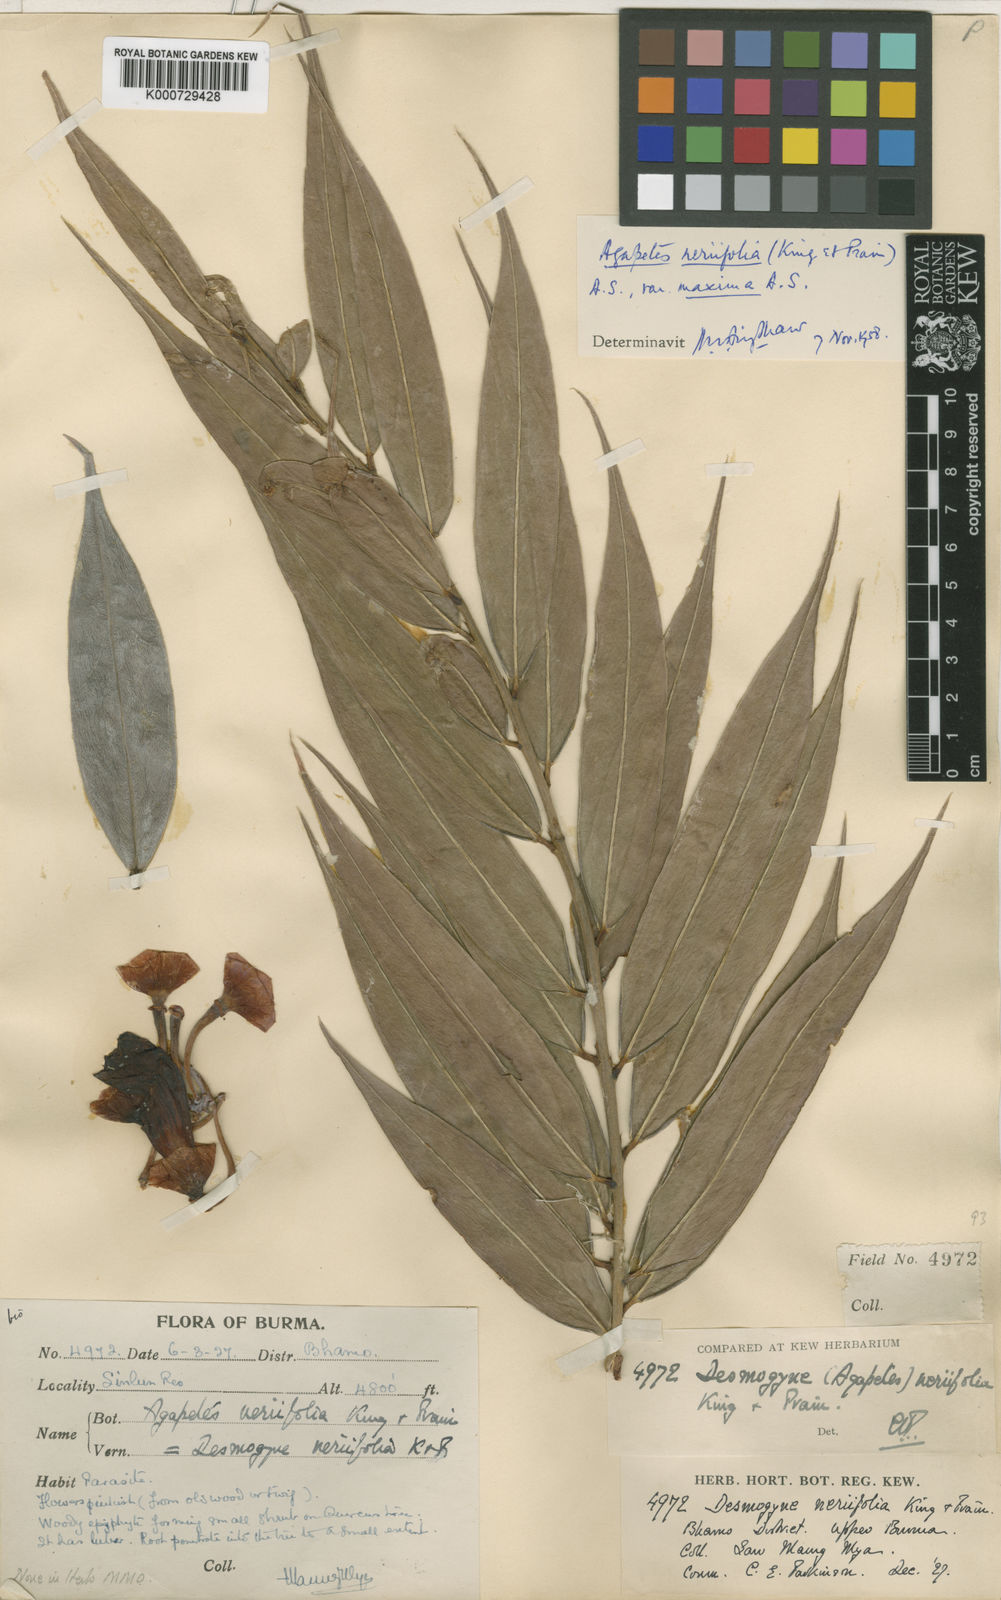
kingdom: Plantae
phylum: Tracheophyta
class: Magnoliopsida
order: Ericales
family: Ericaceae
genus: Agapetes
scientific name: Agapetes neriifolia
